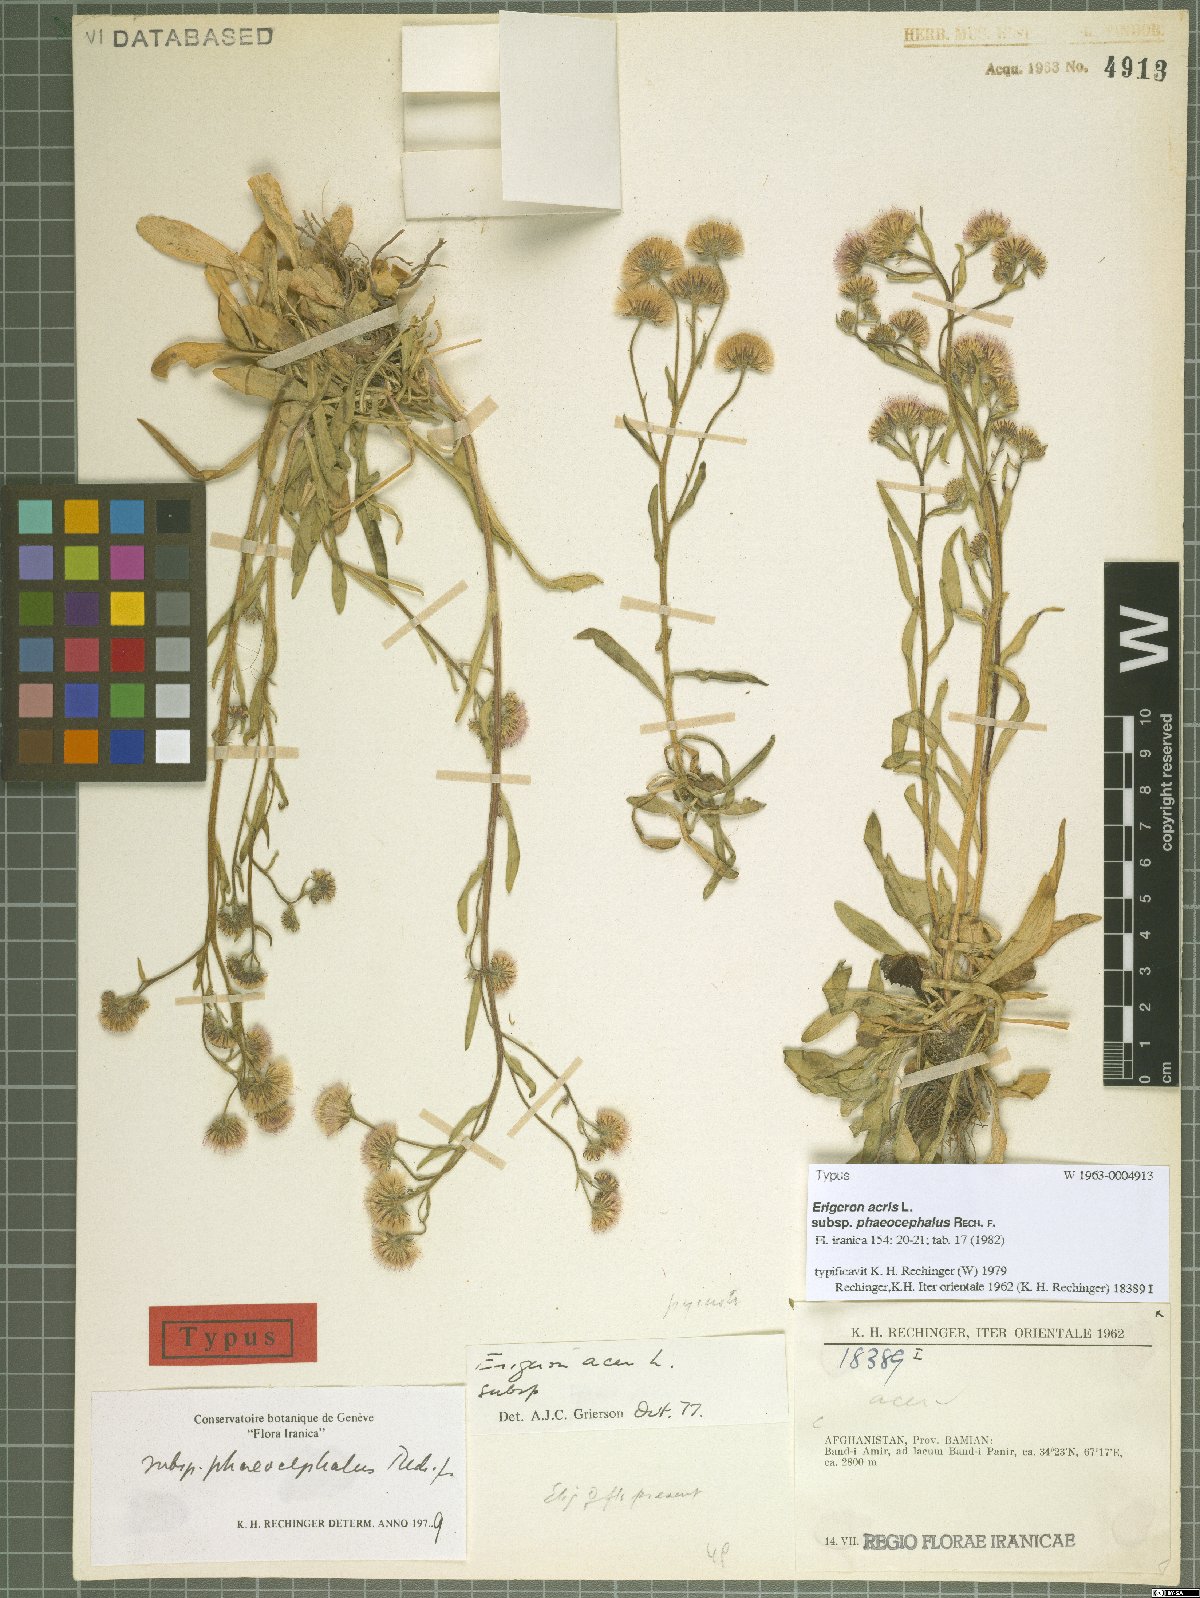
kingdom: Plantae
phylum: Tracheophyta
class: Magnoliopsida
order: Asterales
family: Asteraceae
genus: Erigeron
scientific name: Erigeron acris
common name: Blue fleabane
